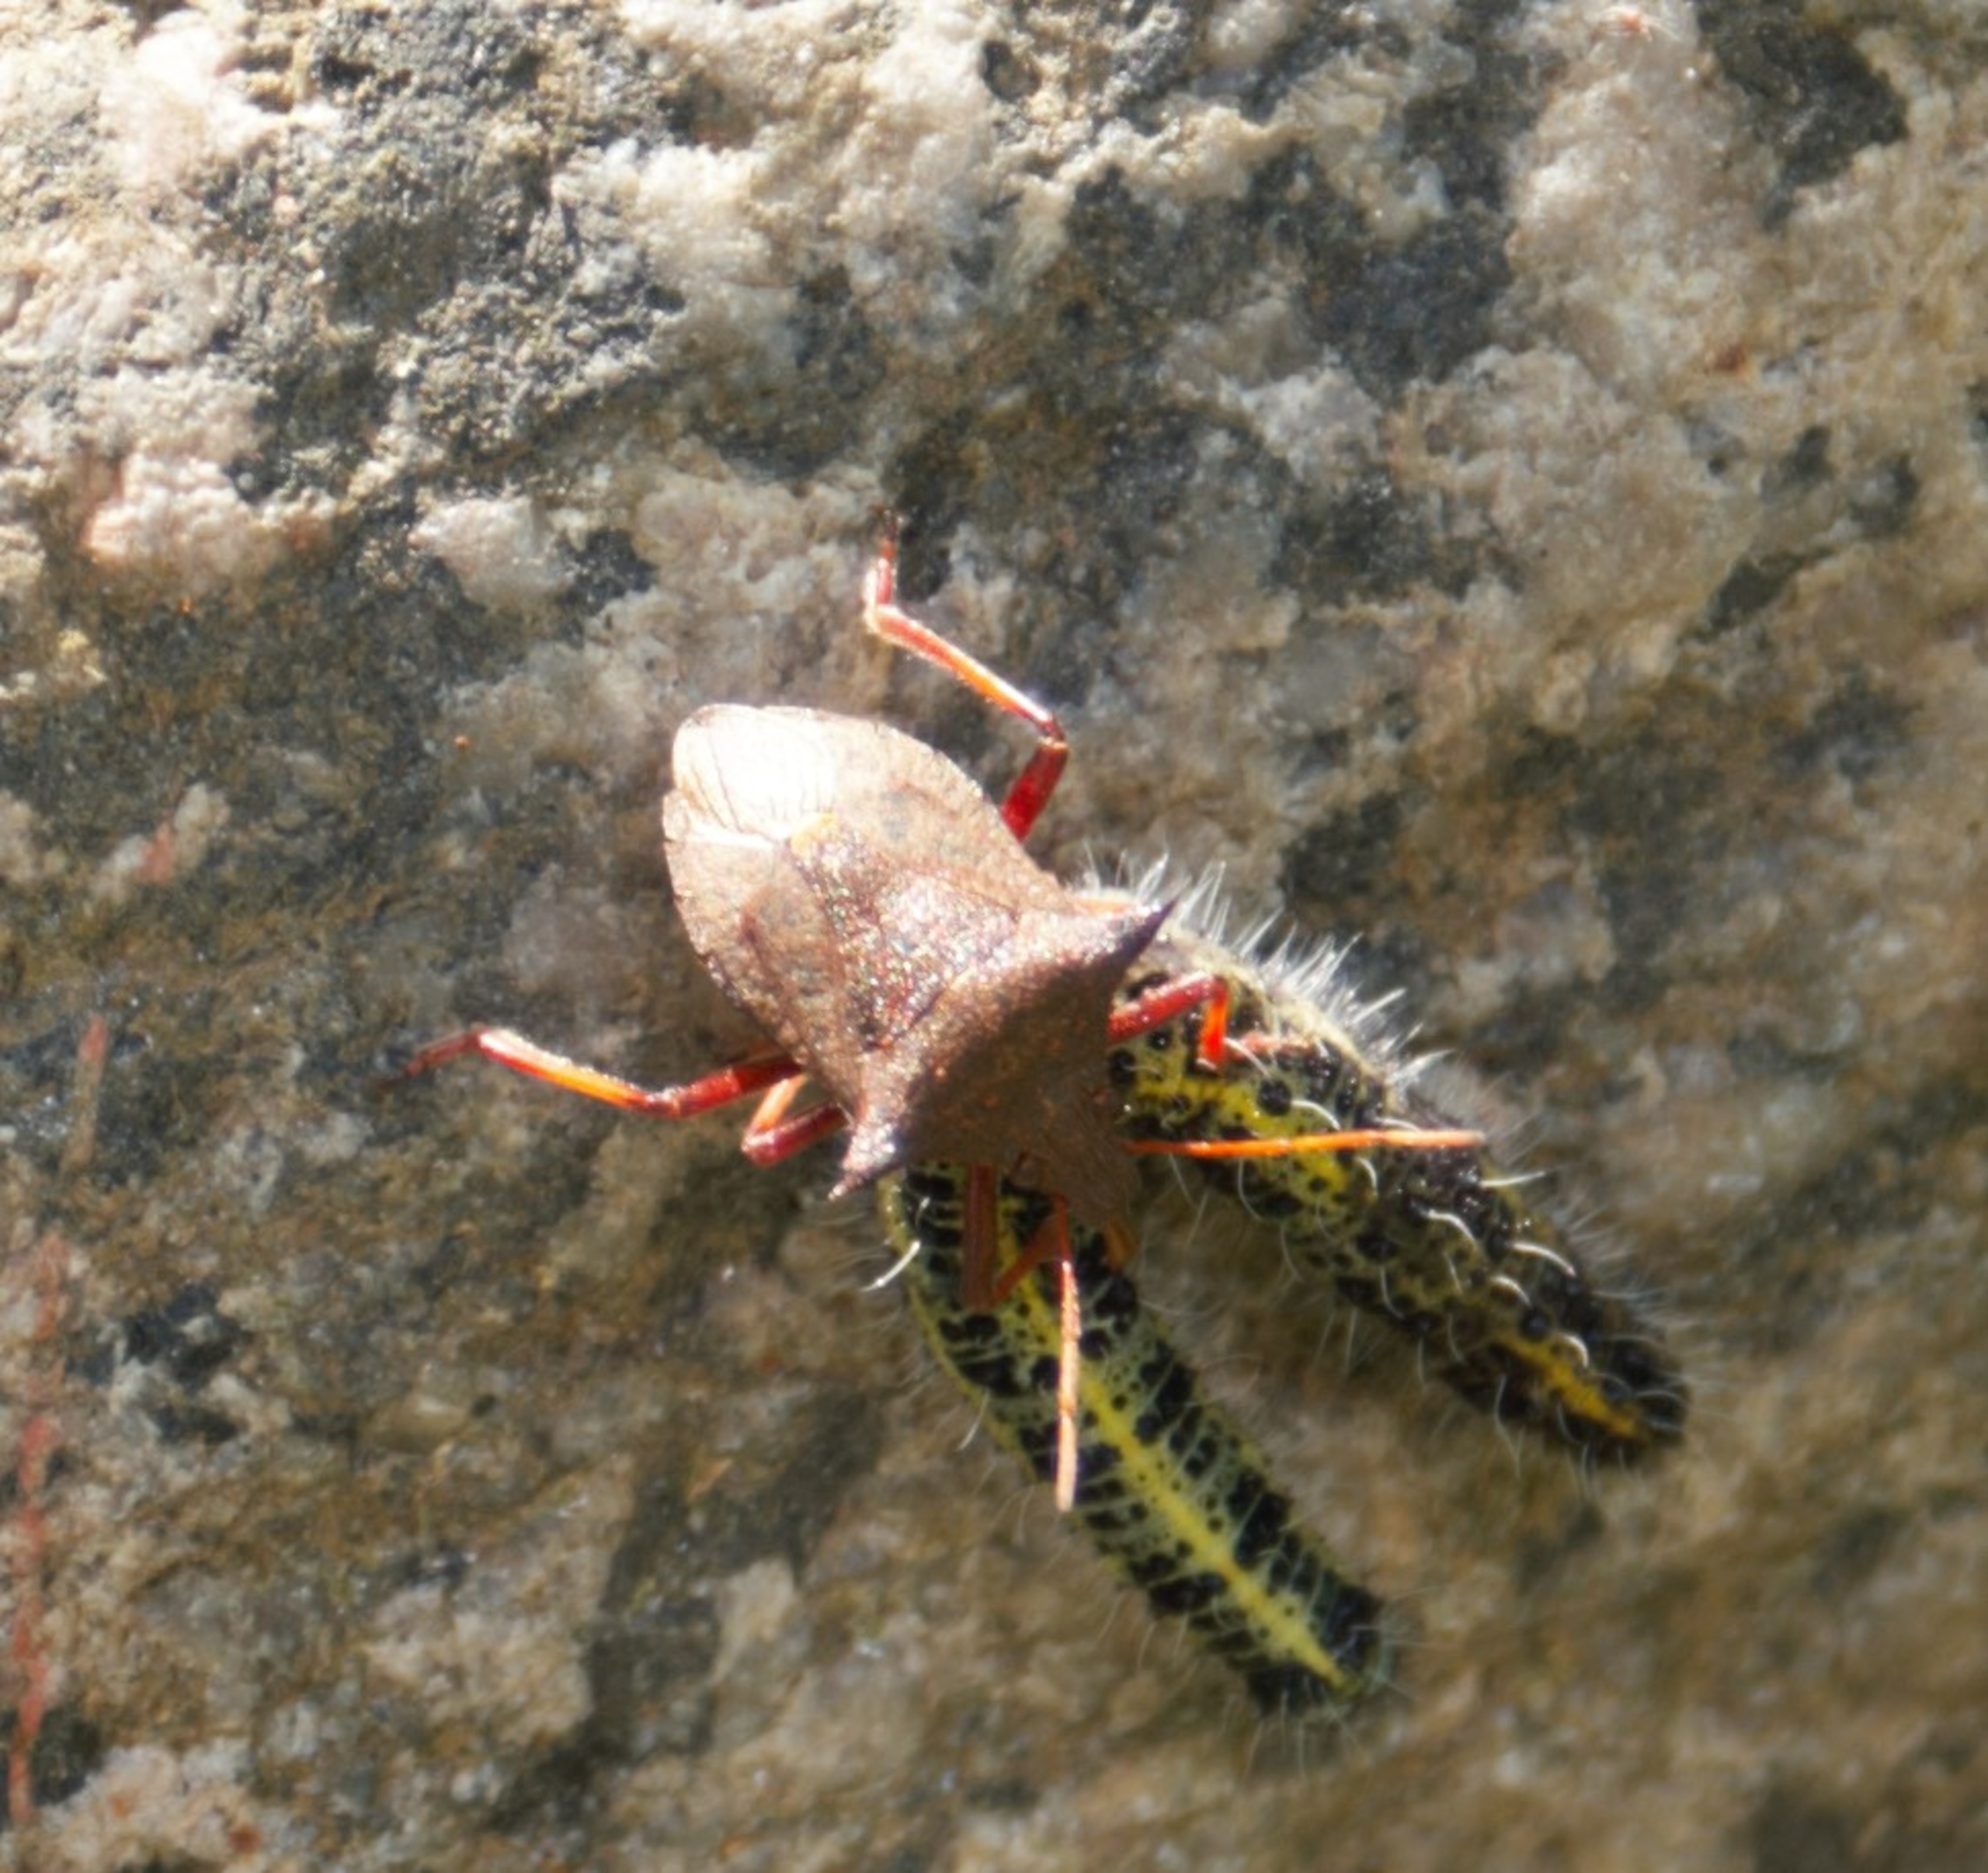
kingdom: Animalia
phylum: Arthropoda
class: Insecta
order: Hemiptera
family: Pentatomidae
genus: Picromerus
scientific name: Picromerus bidens
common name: Torntæge
